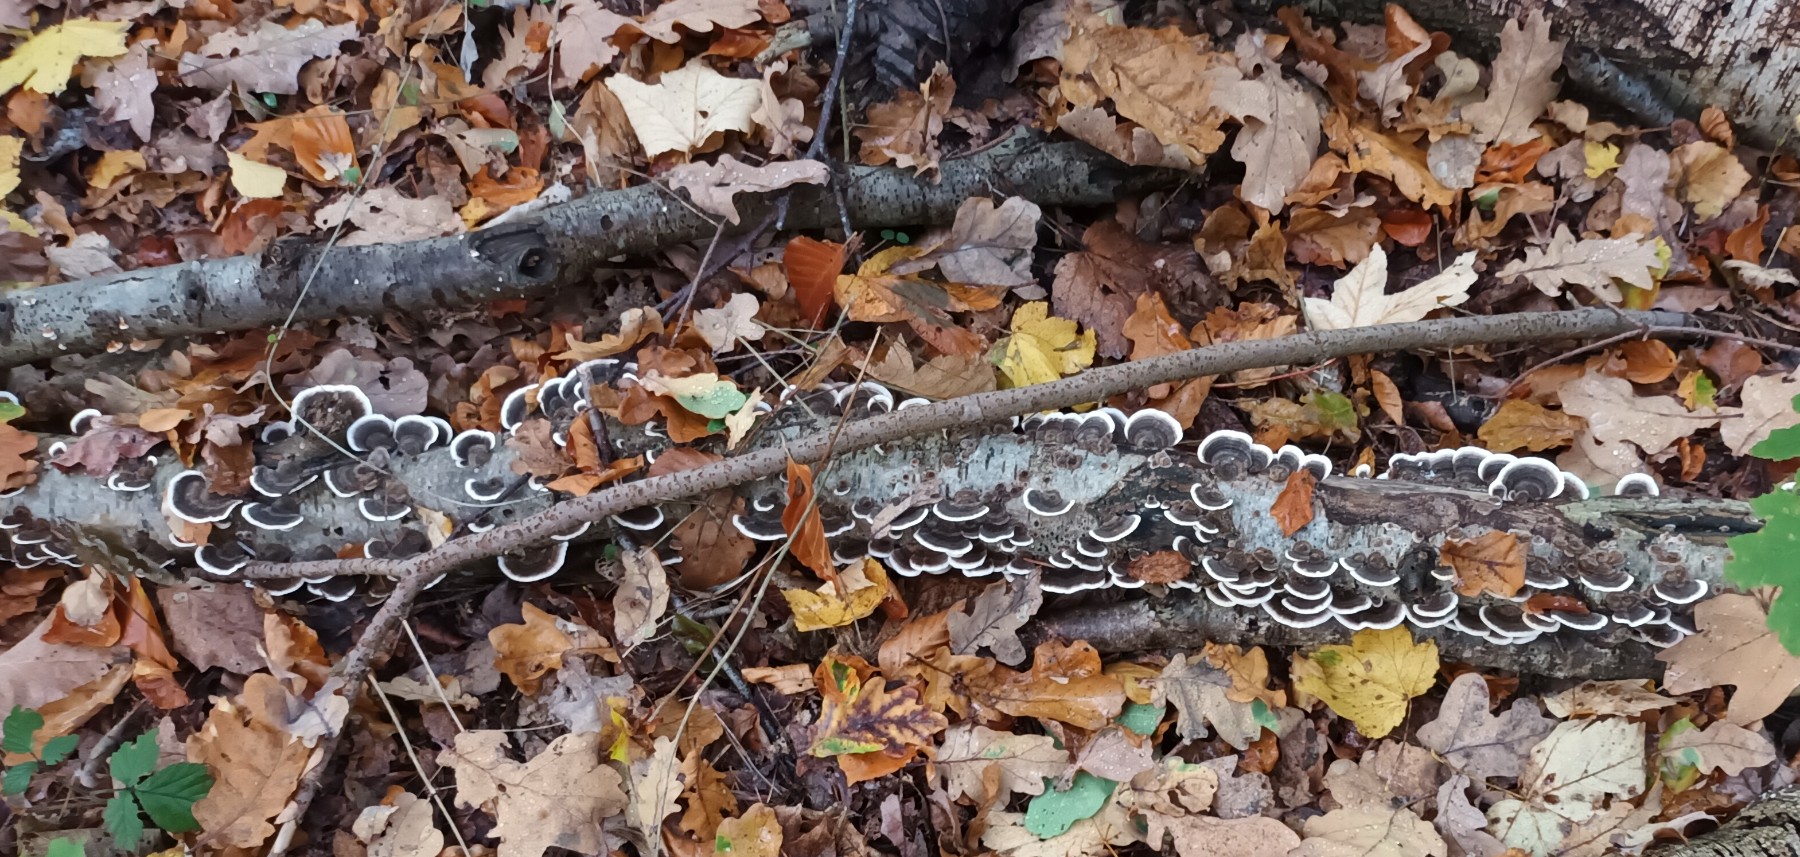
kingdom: Fungi
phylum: Basidiomycota
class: Agaricomycetes
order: Polyporales
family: Polyporaceae
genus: Trametes
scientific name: Trametes versicolor
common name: broget læderporesvamp
